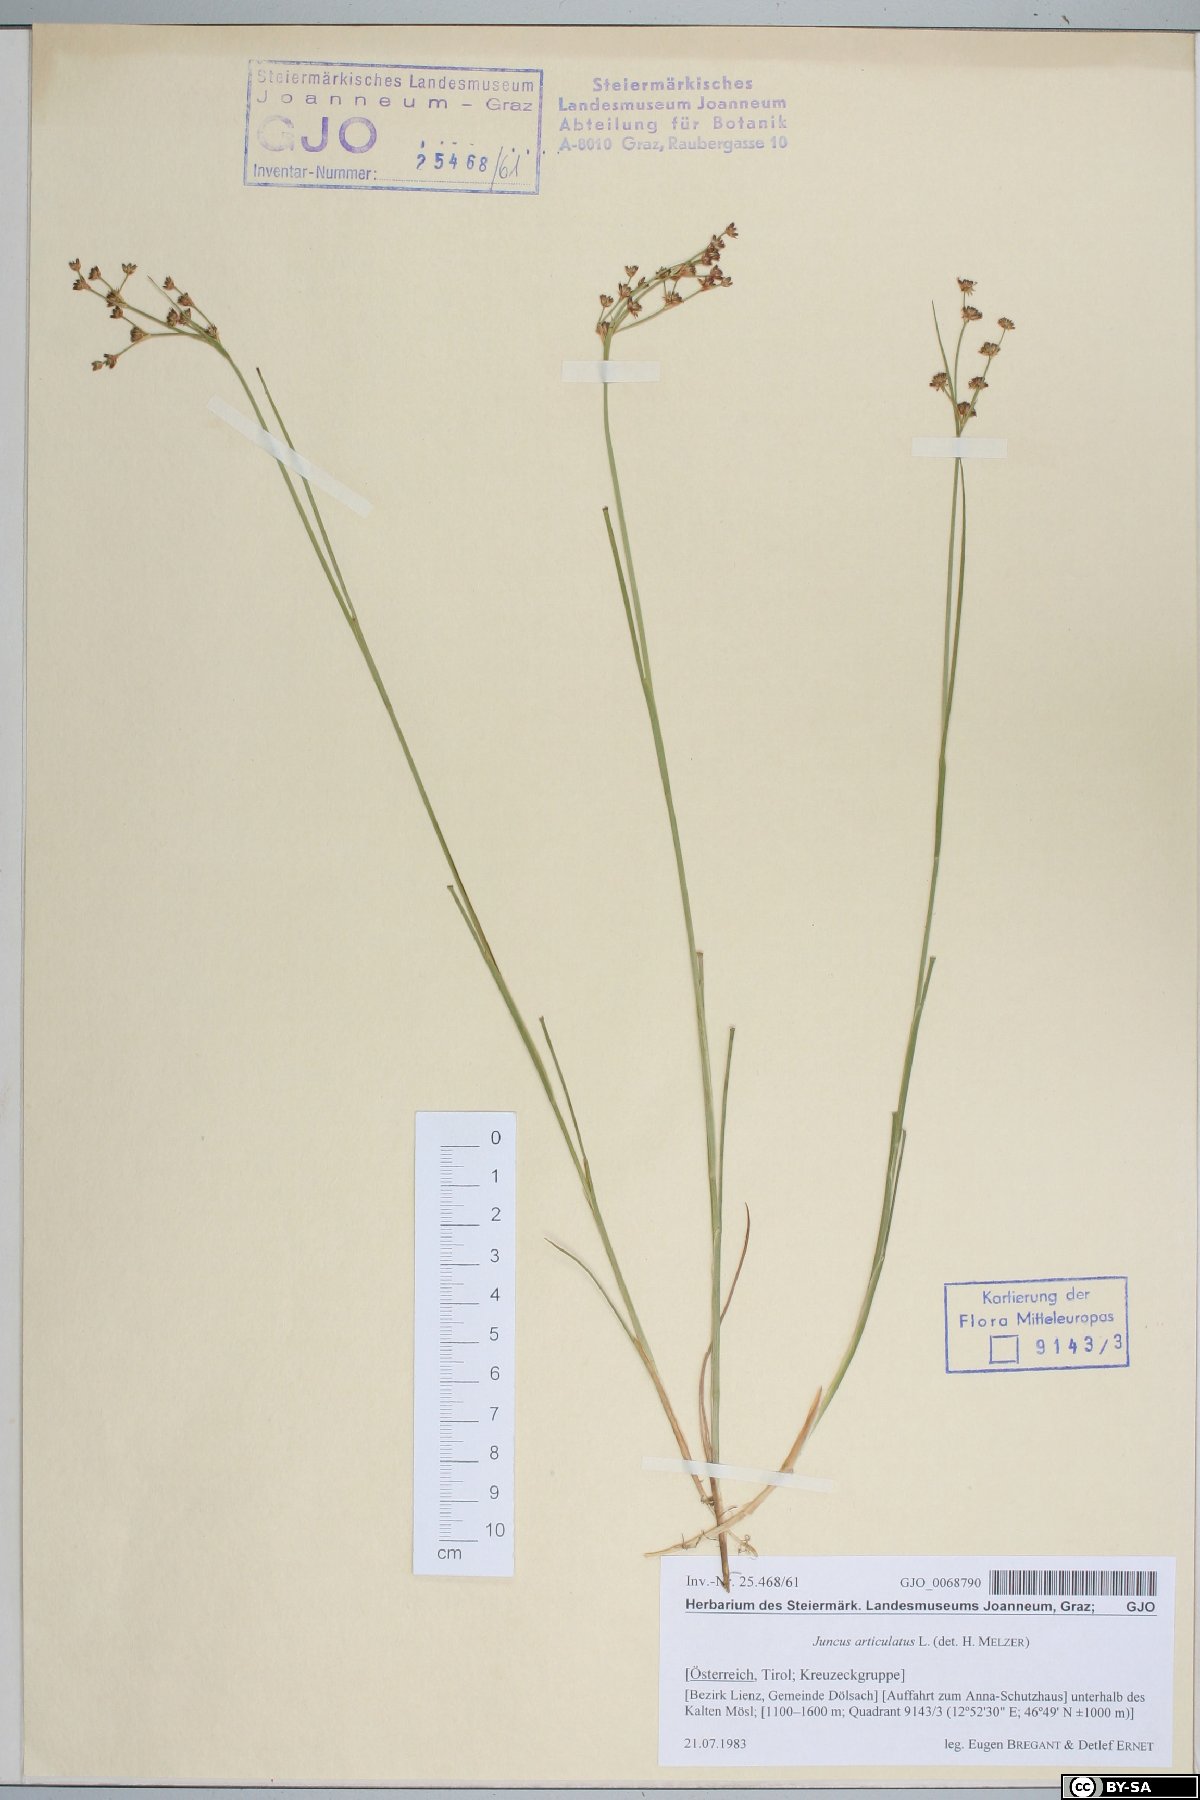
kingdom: Plantae
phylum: Tracheophyta
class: Liliopsida
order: Poales
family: Juncaceae
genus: Juncus
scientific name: Juncus articulatus
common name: Jointed rush
